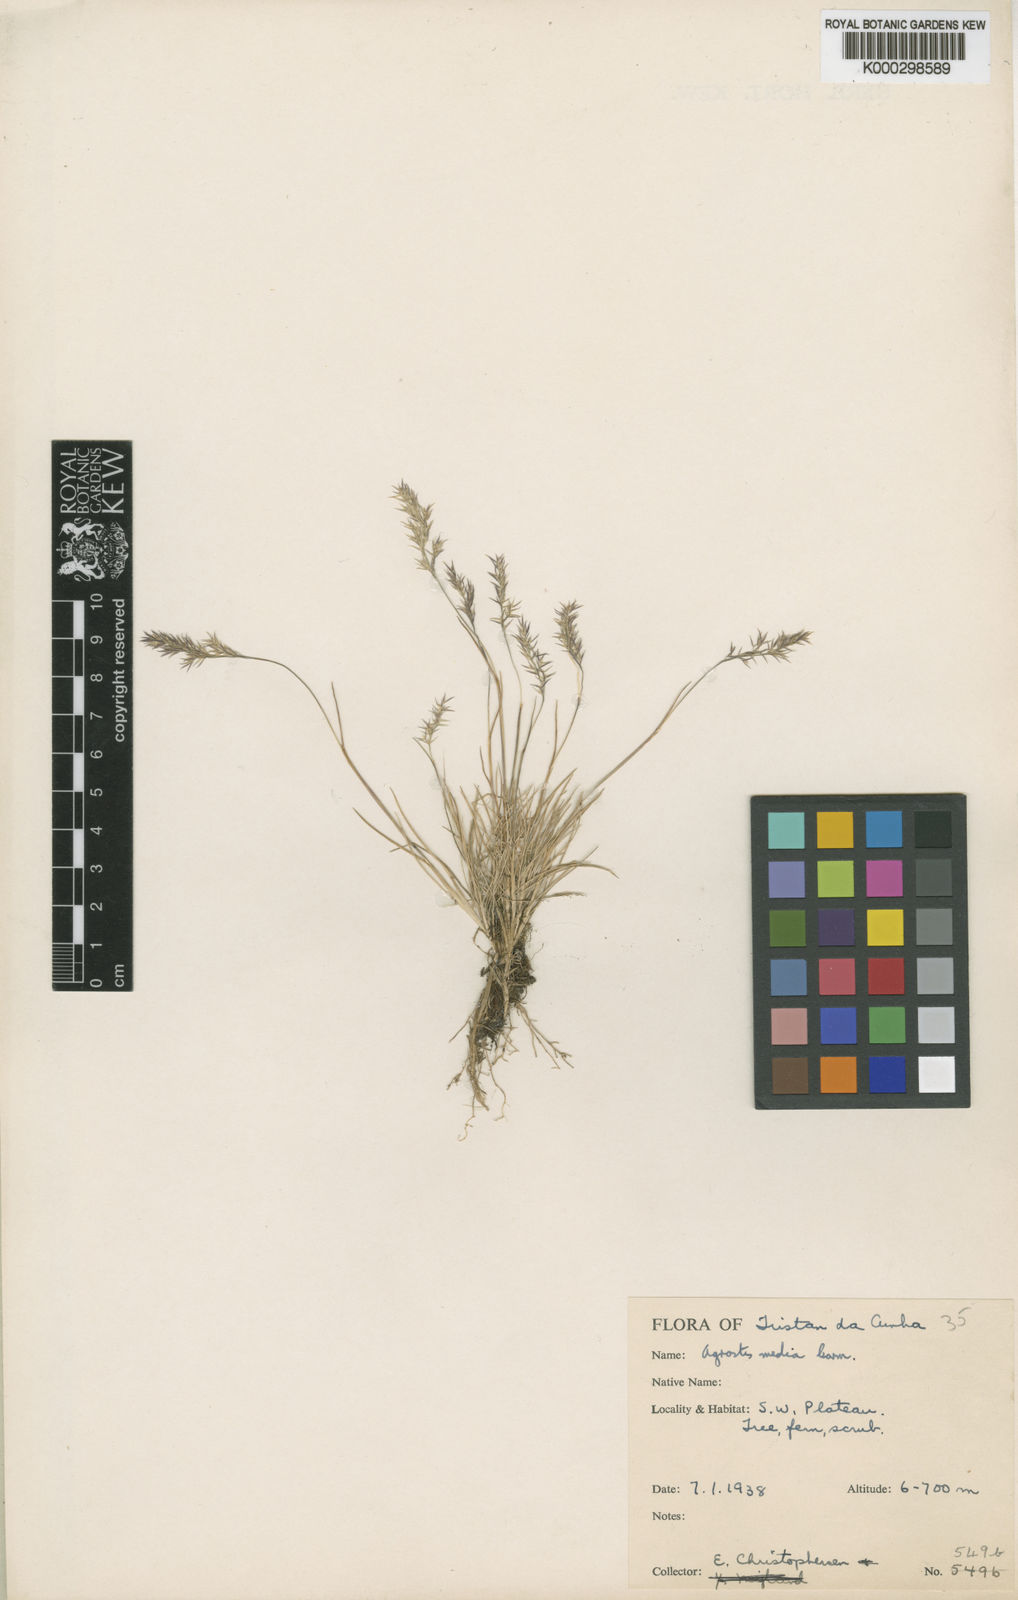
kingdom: Plantae
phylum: Tracheophyta
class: Liliopsida
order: Poales
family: Poaceae
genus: Agrostis
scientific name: Agrostis media
